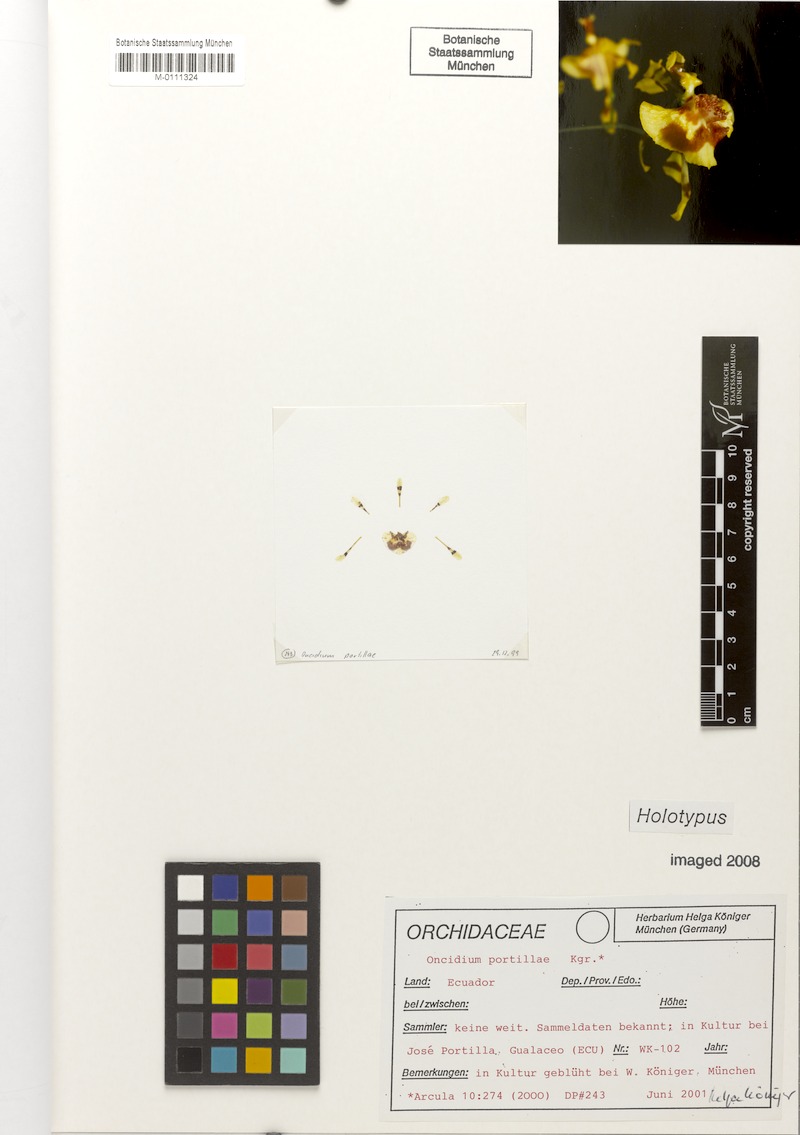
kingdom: Plantae
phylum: Tracheophyta
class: Liliopsida
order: Asparagales
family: Orchidaceae
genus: Oncidium
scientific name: Oncidium portillae
